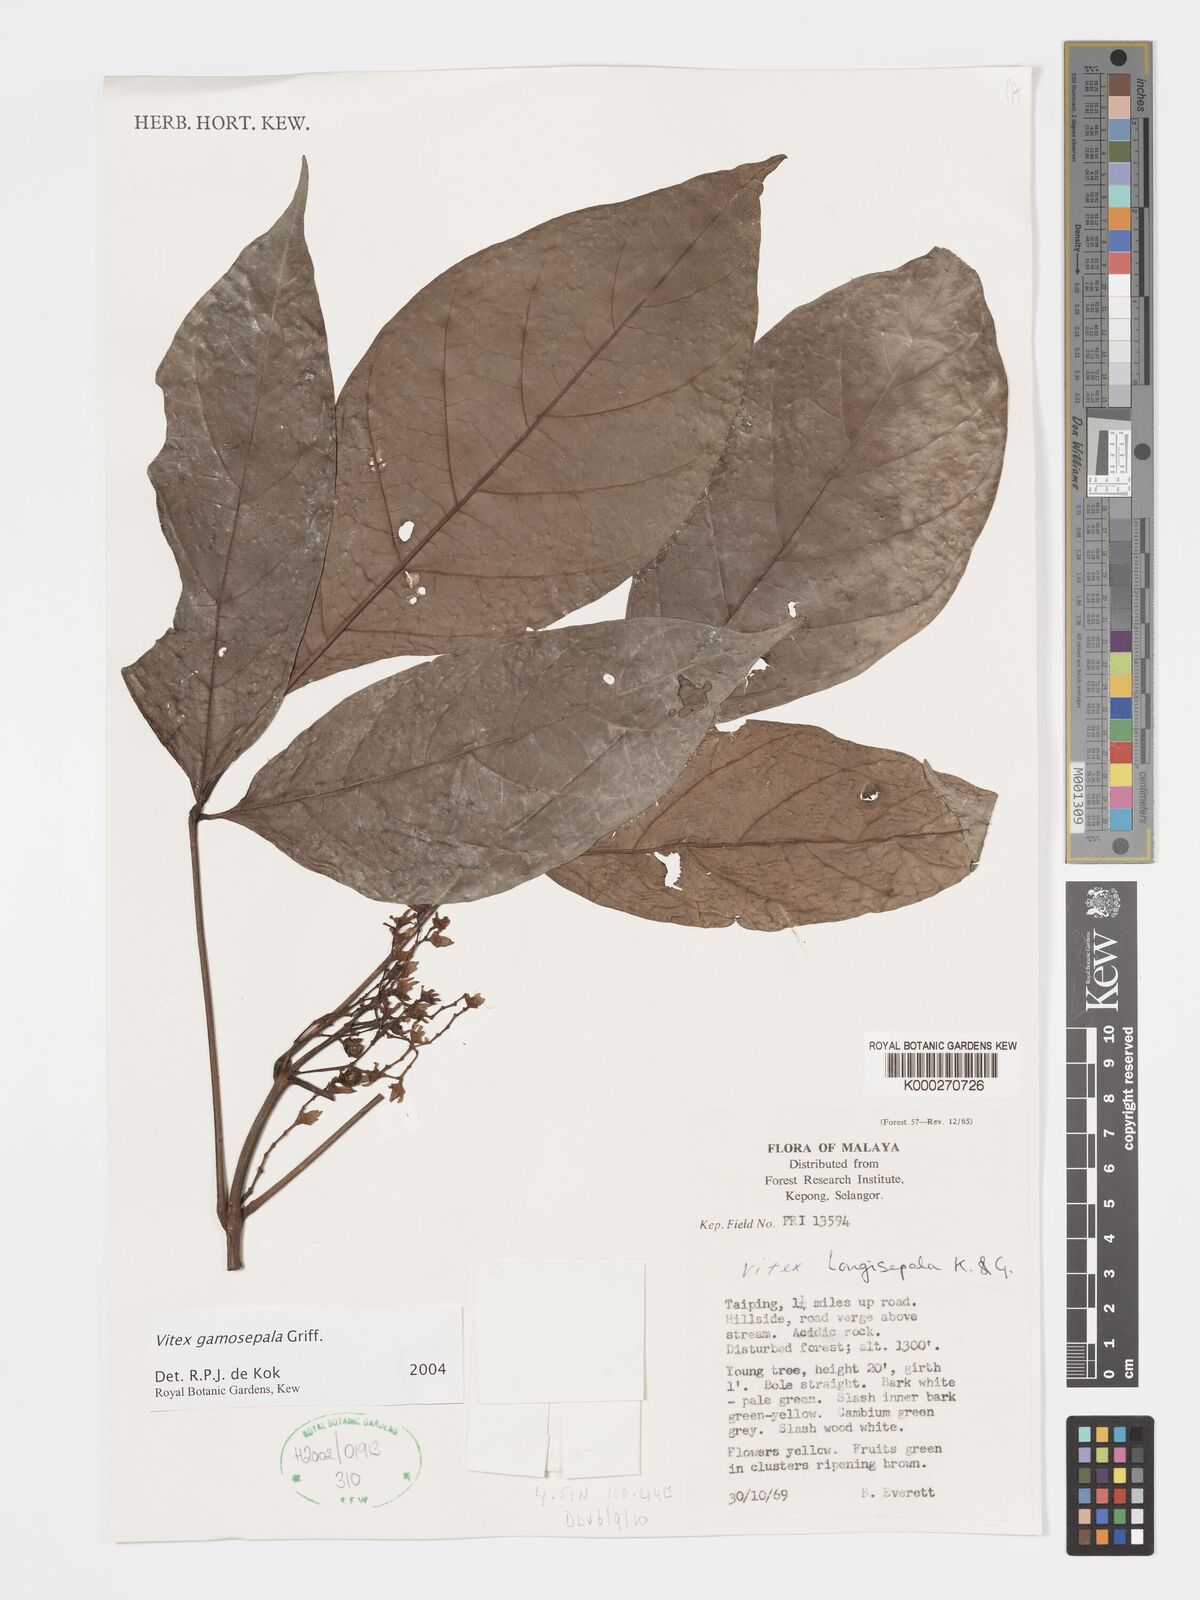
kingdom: Plantae
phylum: Tracheophyta
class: Magnoliopsida
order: Lamiales
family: Lamiaceae
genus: Vitex
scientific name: Vitex gamosepala
